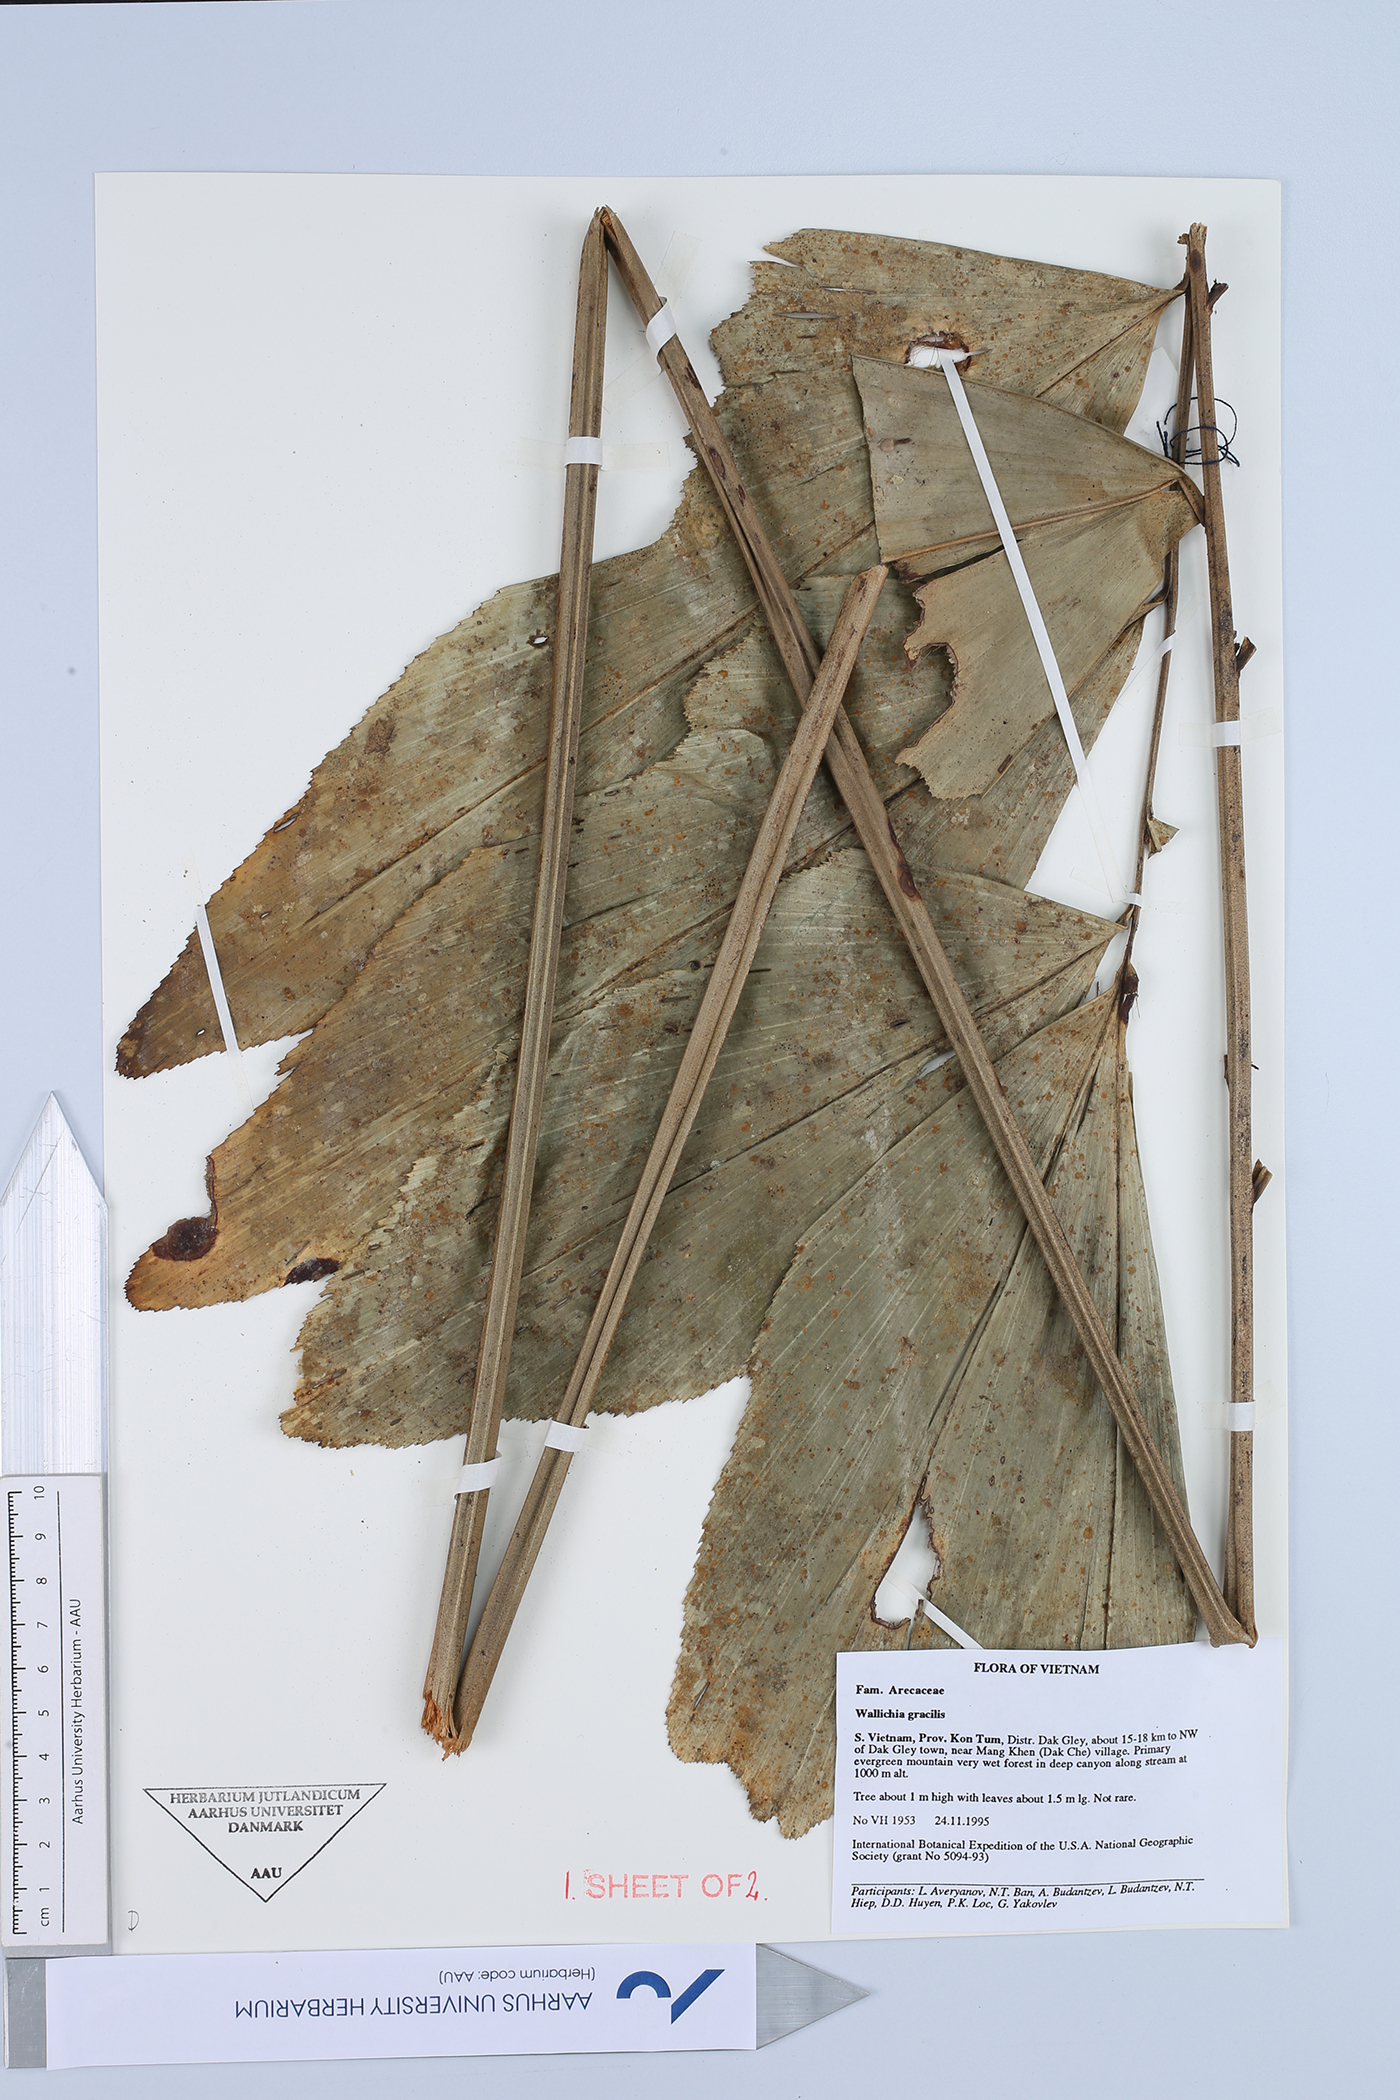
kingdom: Plantae
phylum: Tracheophyta
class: Liliopsida
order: Arecales
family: Arecaceae
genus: Wallichia
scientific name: Wallichia gracilis
